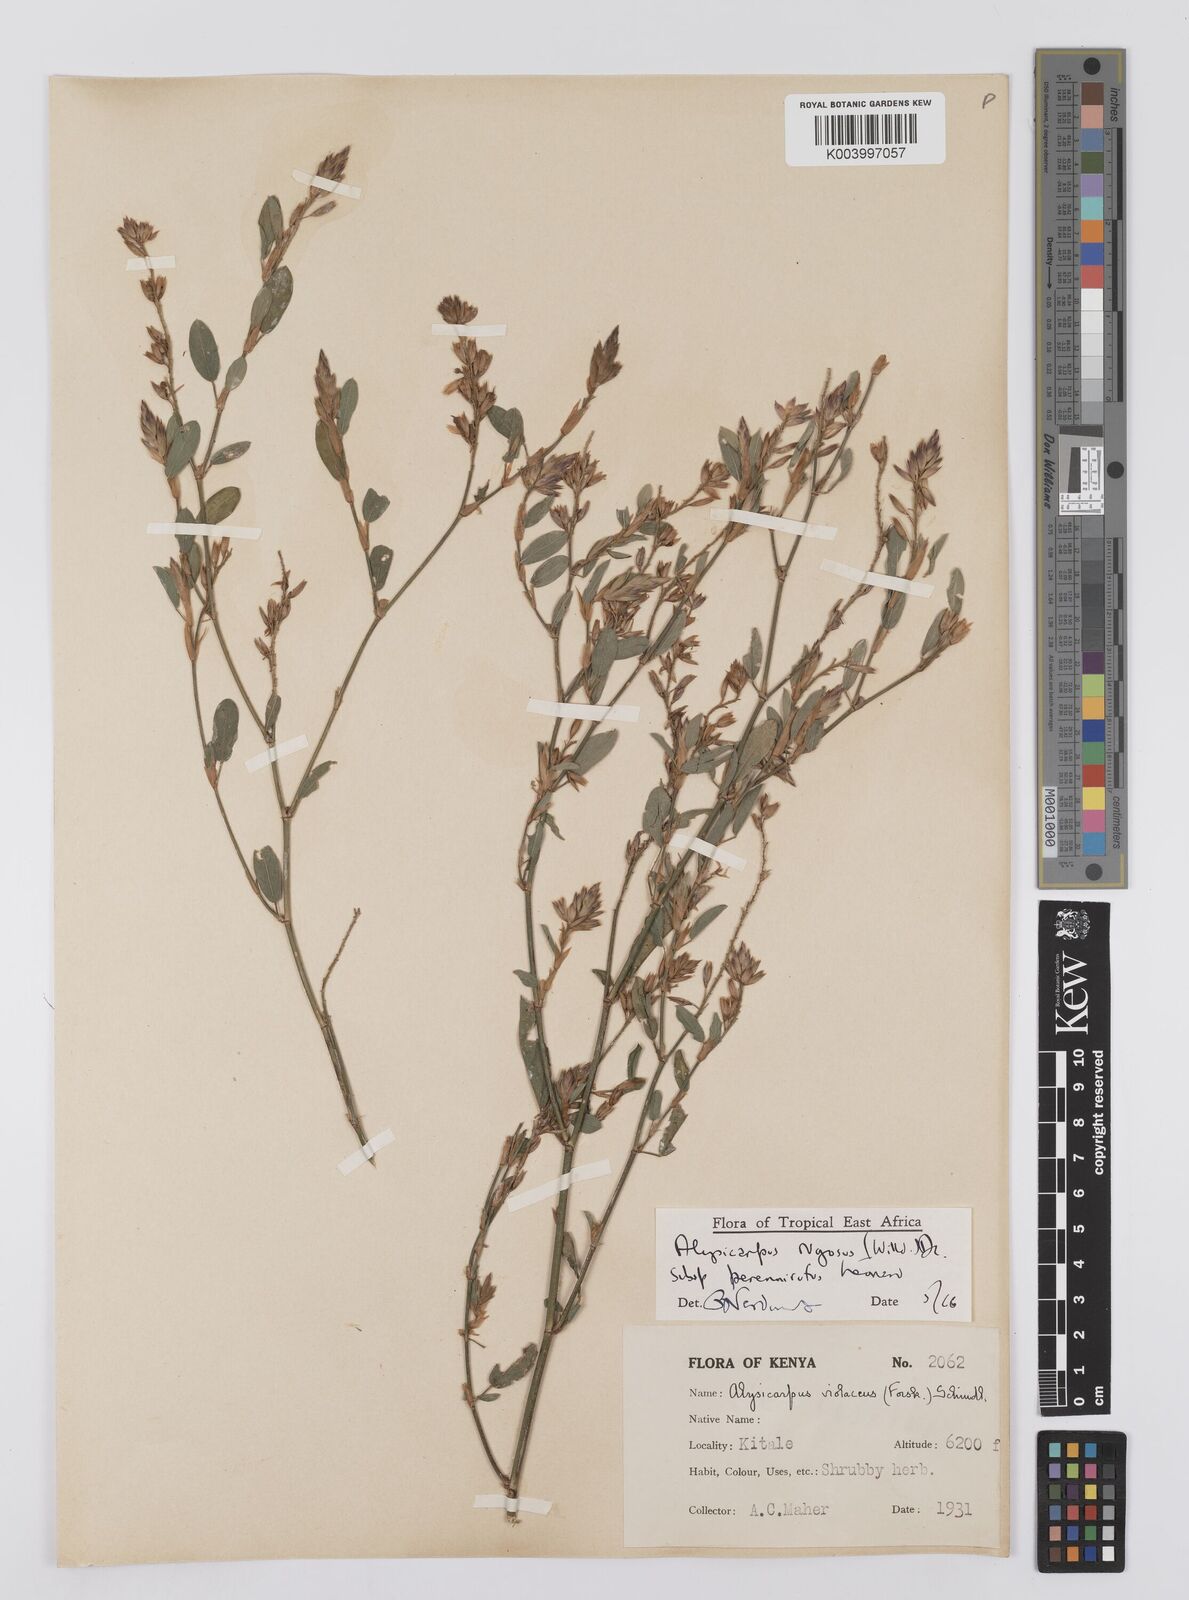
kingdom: Plantae
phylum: Tracheophyta
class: Magnoliopsida
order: Fabales
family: Fabaceae
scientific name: Fabaceae
